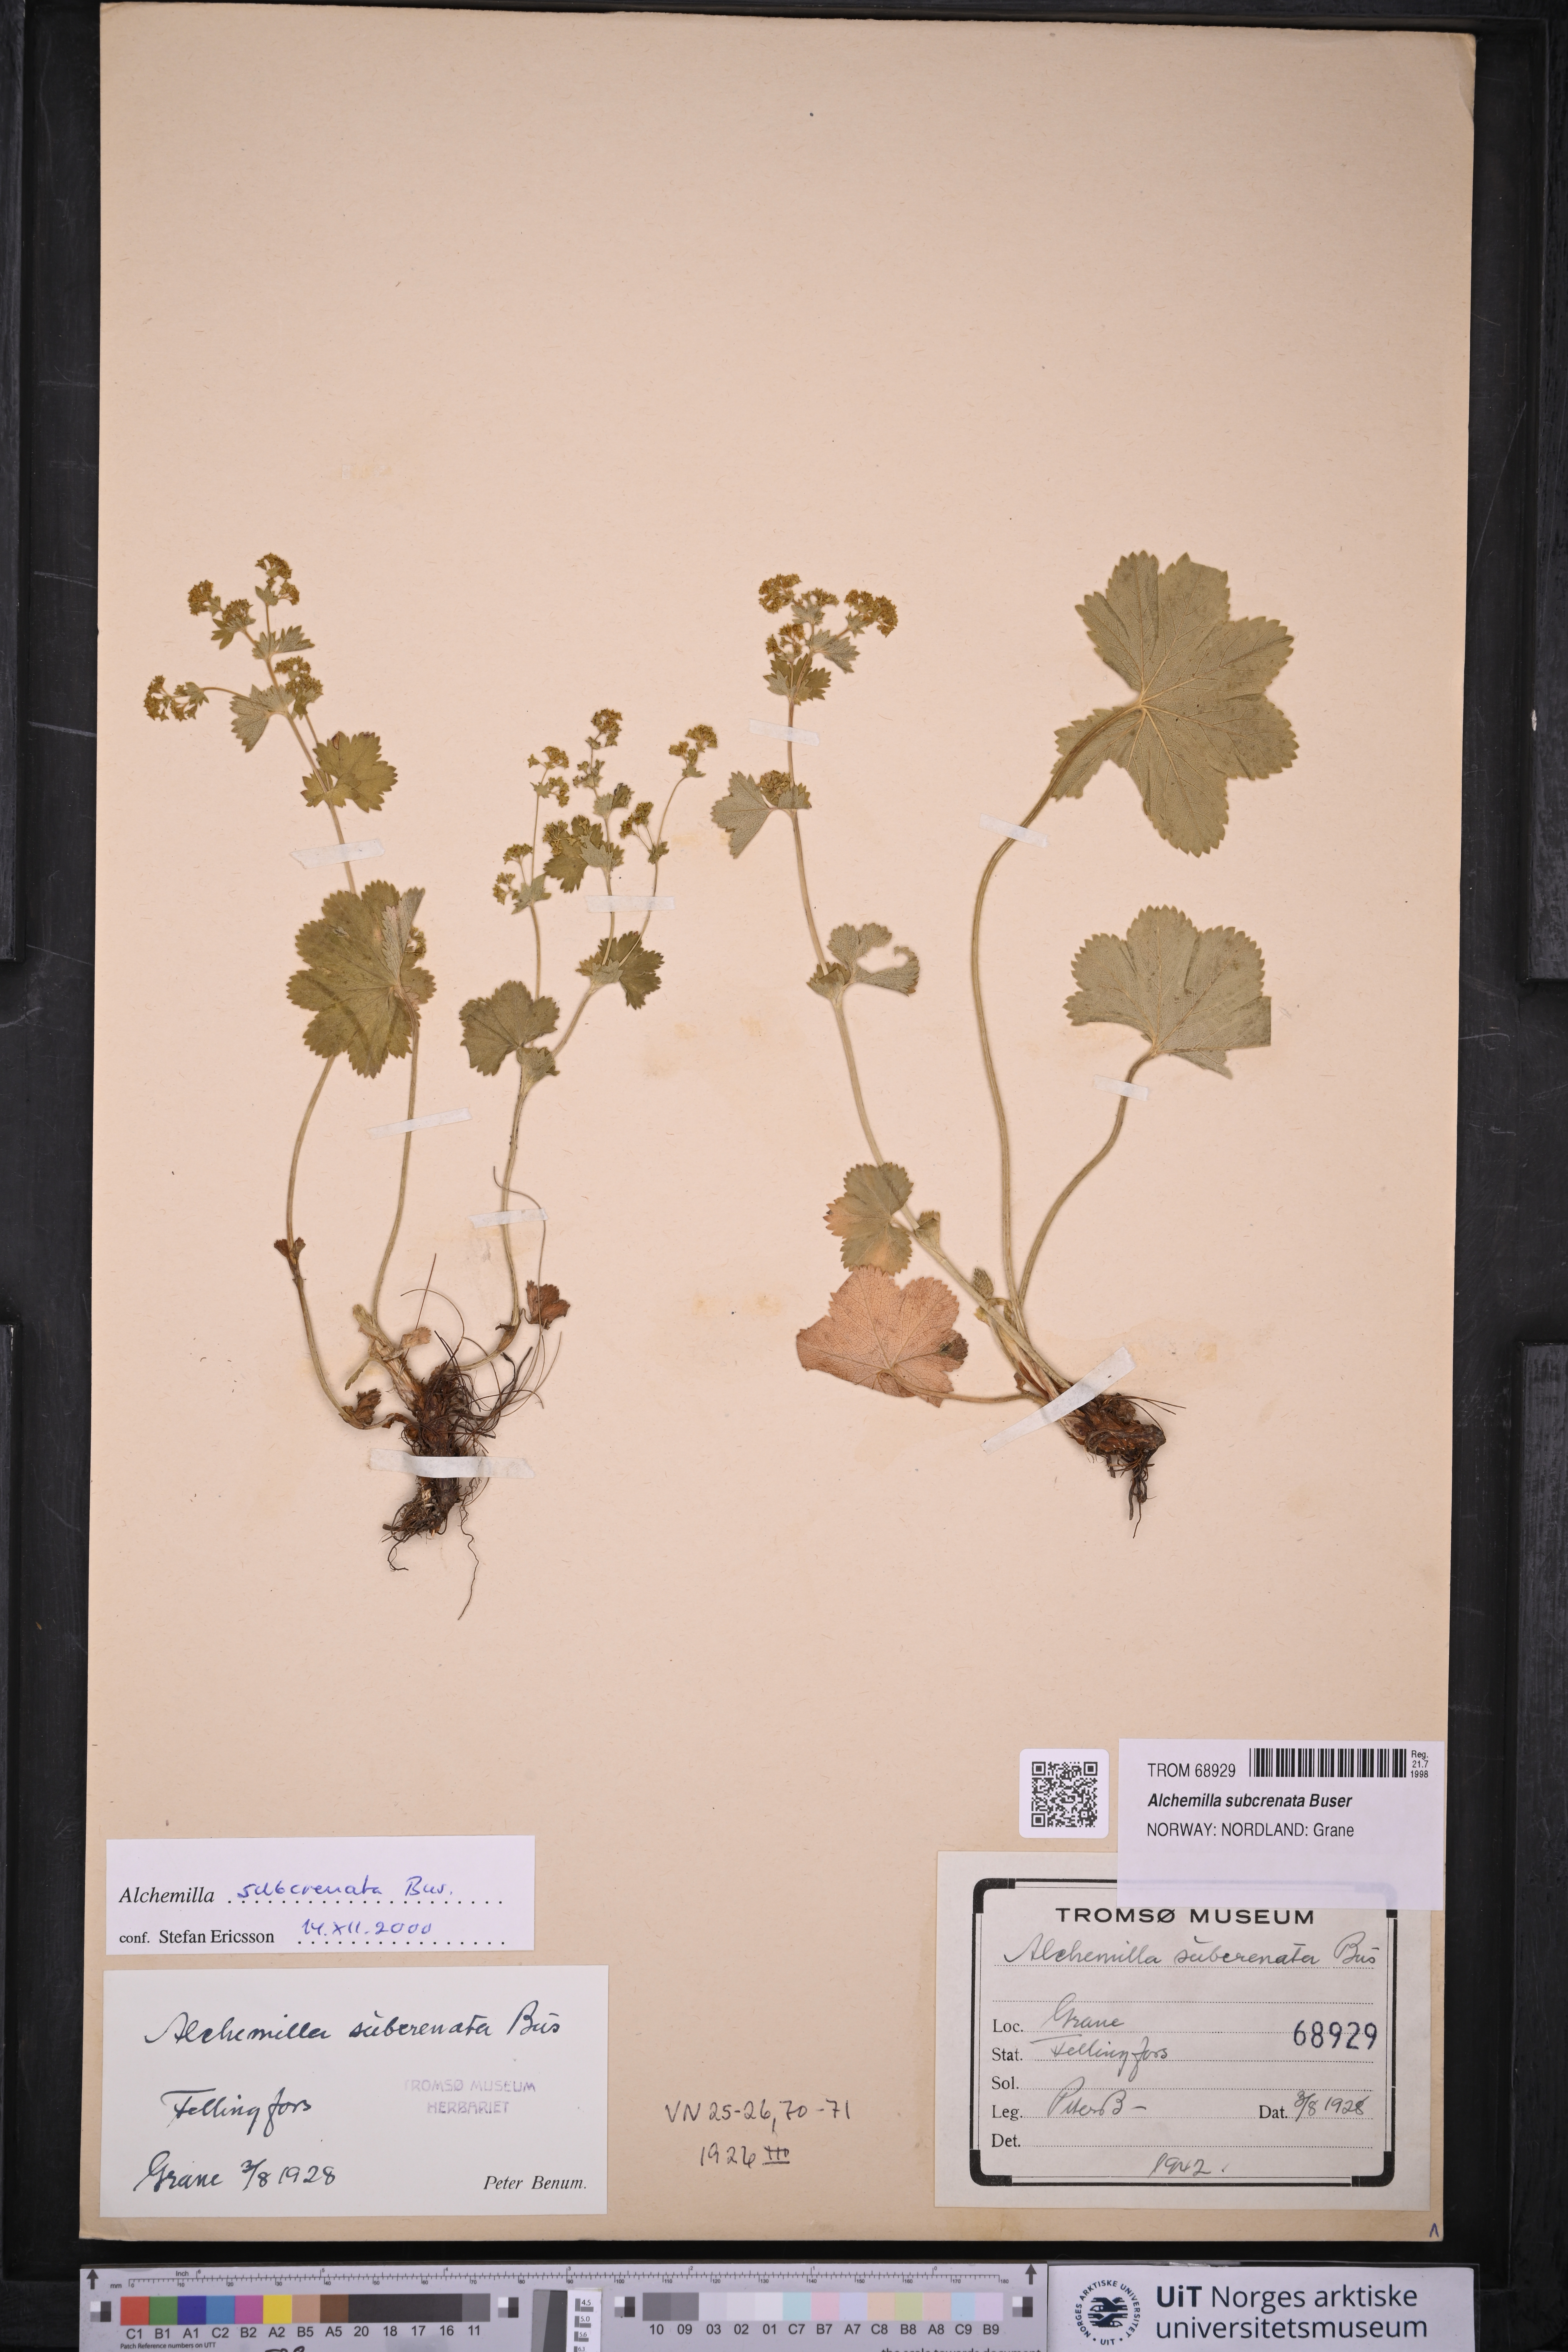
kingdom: Plantae
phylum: Tracheophyta
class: Magnoliopsida
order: Rosales
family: Rosaceae
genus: Alchemilla
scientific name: Alchemilla subcrenata
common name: Broadtooth lady's mantle
